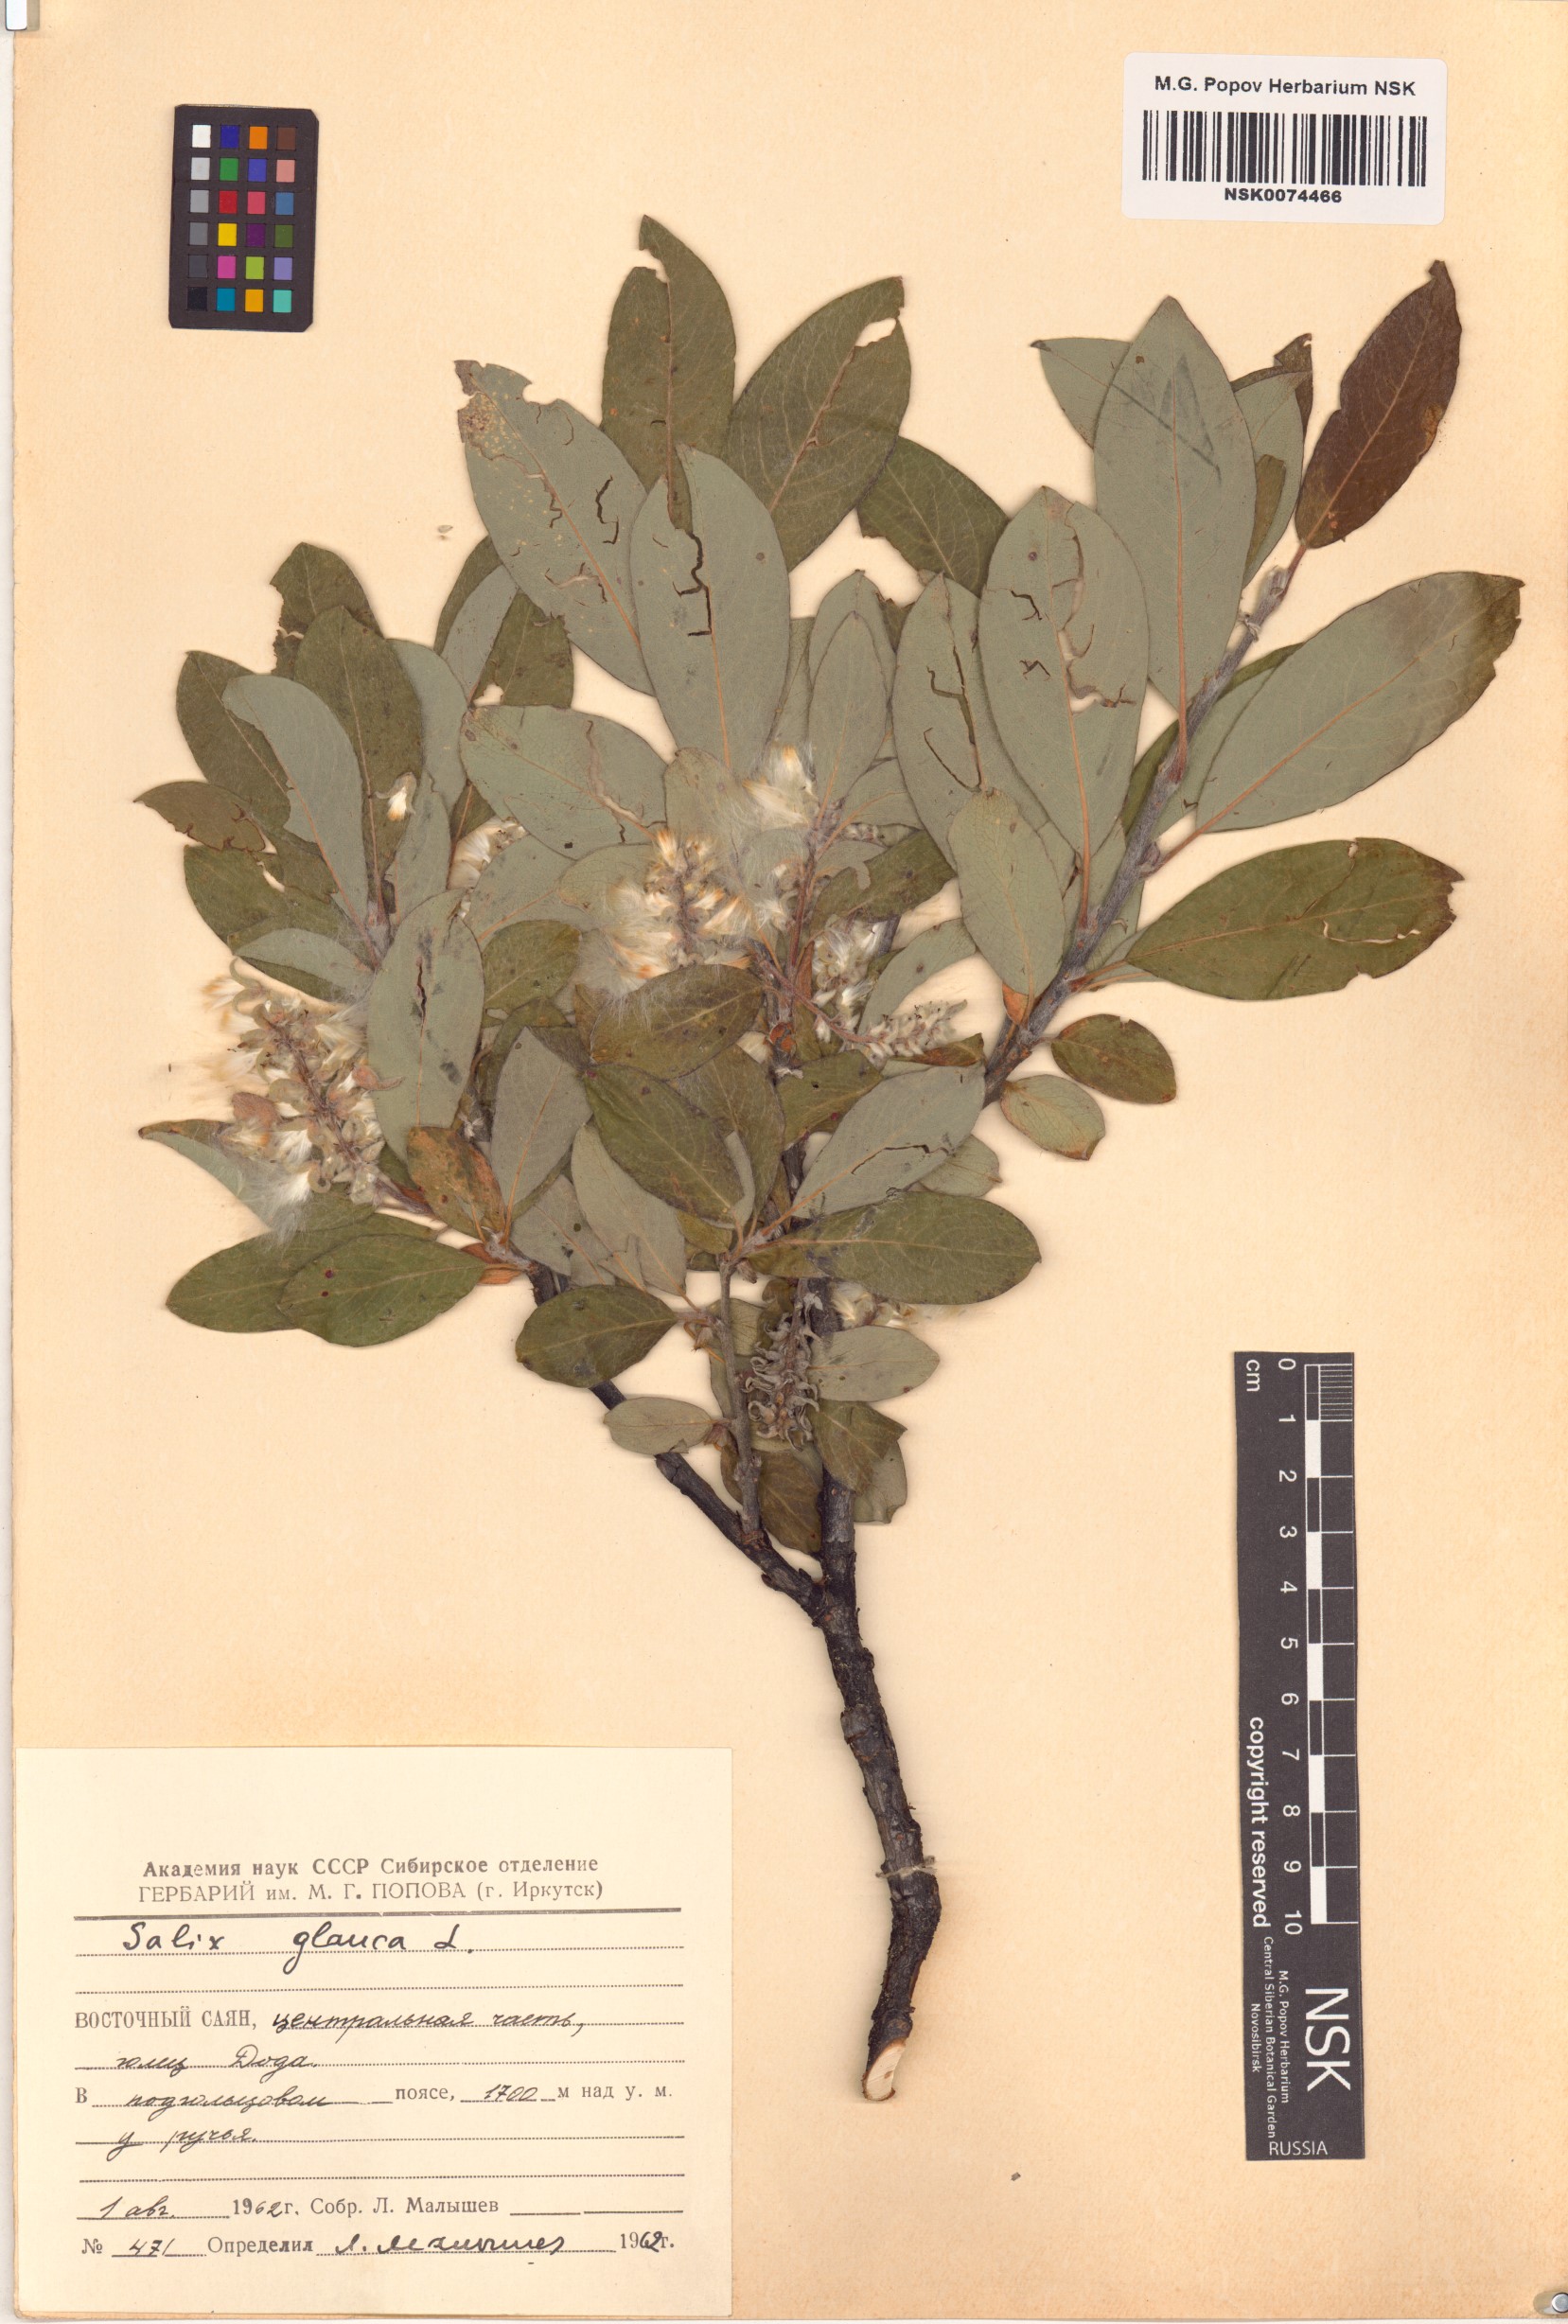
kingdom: Plantae
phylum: Tracheophyta
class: Magnoliopsida
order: Malpighiales
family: Salicaceae
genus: Salix
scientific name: Salix glauca
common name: Glaucous willow
